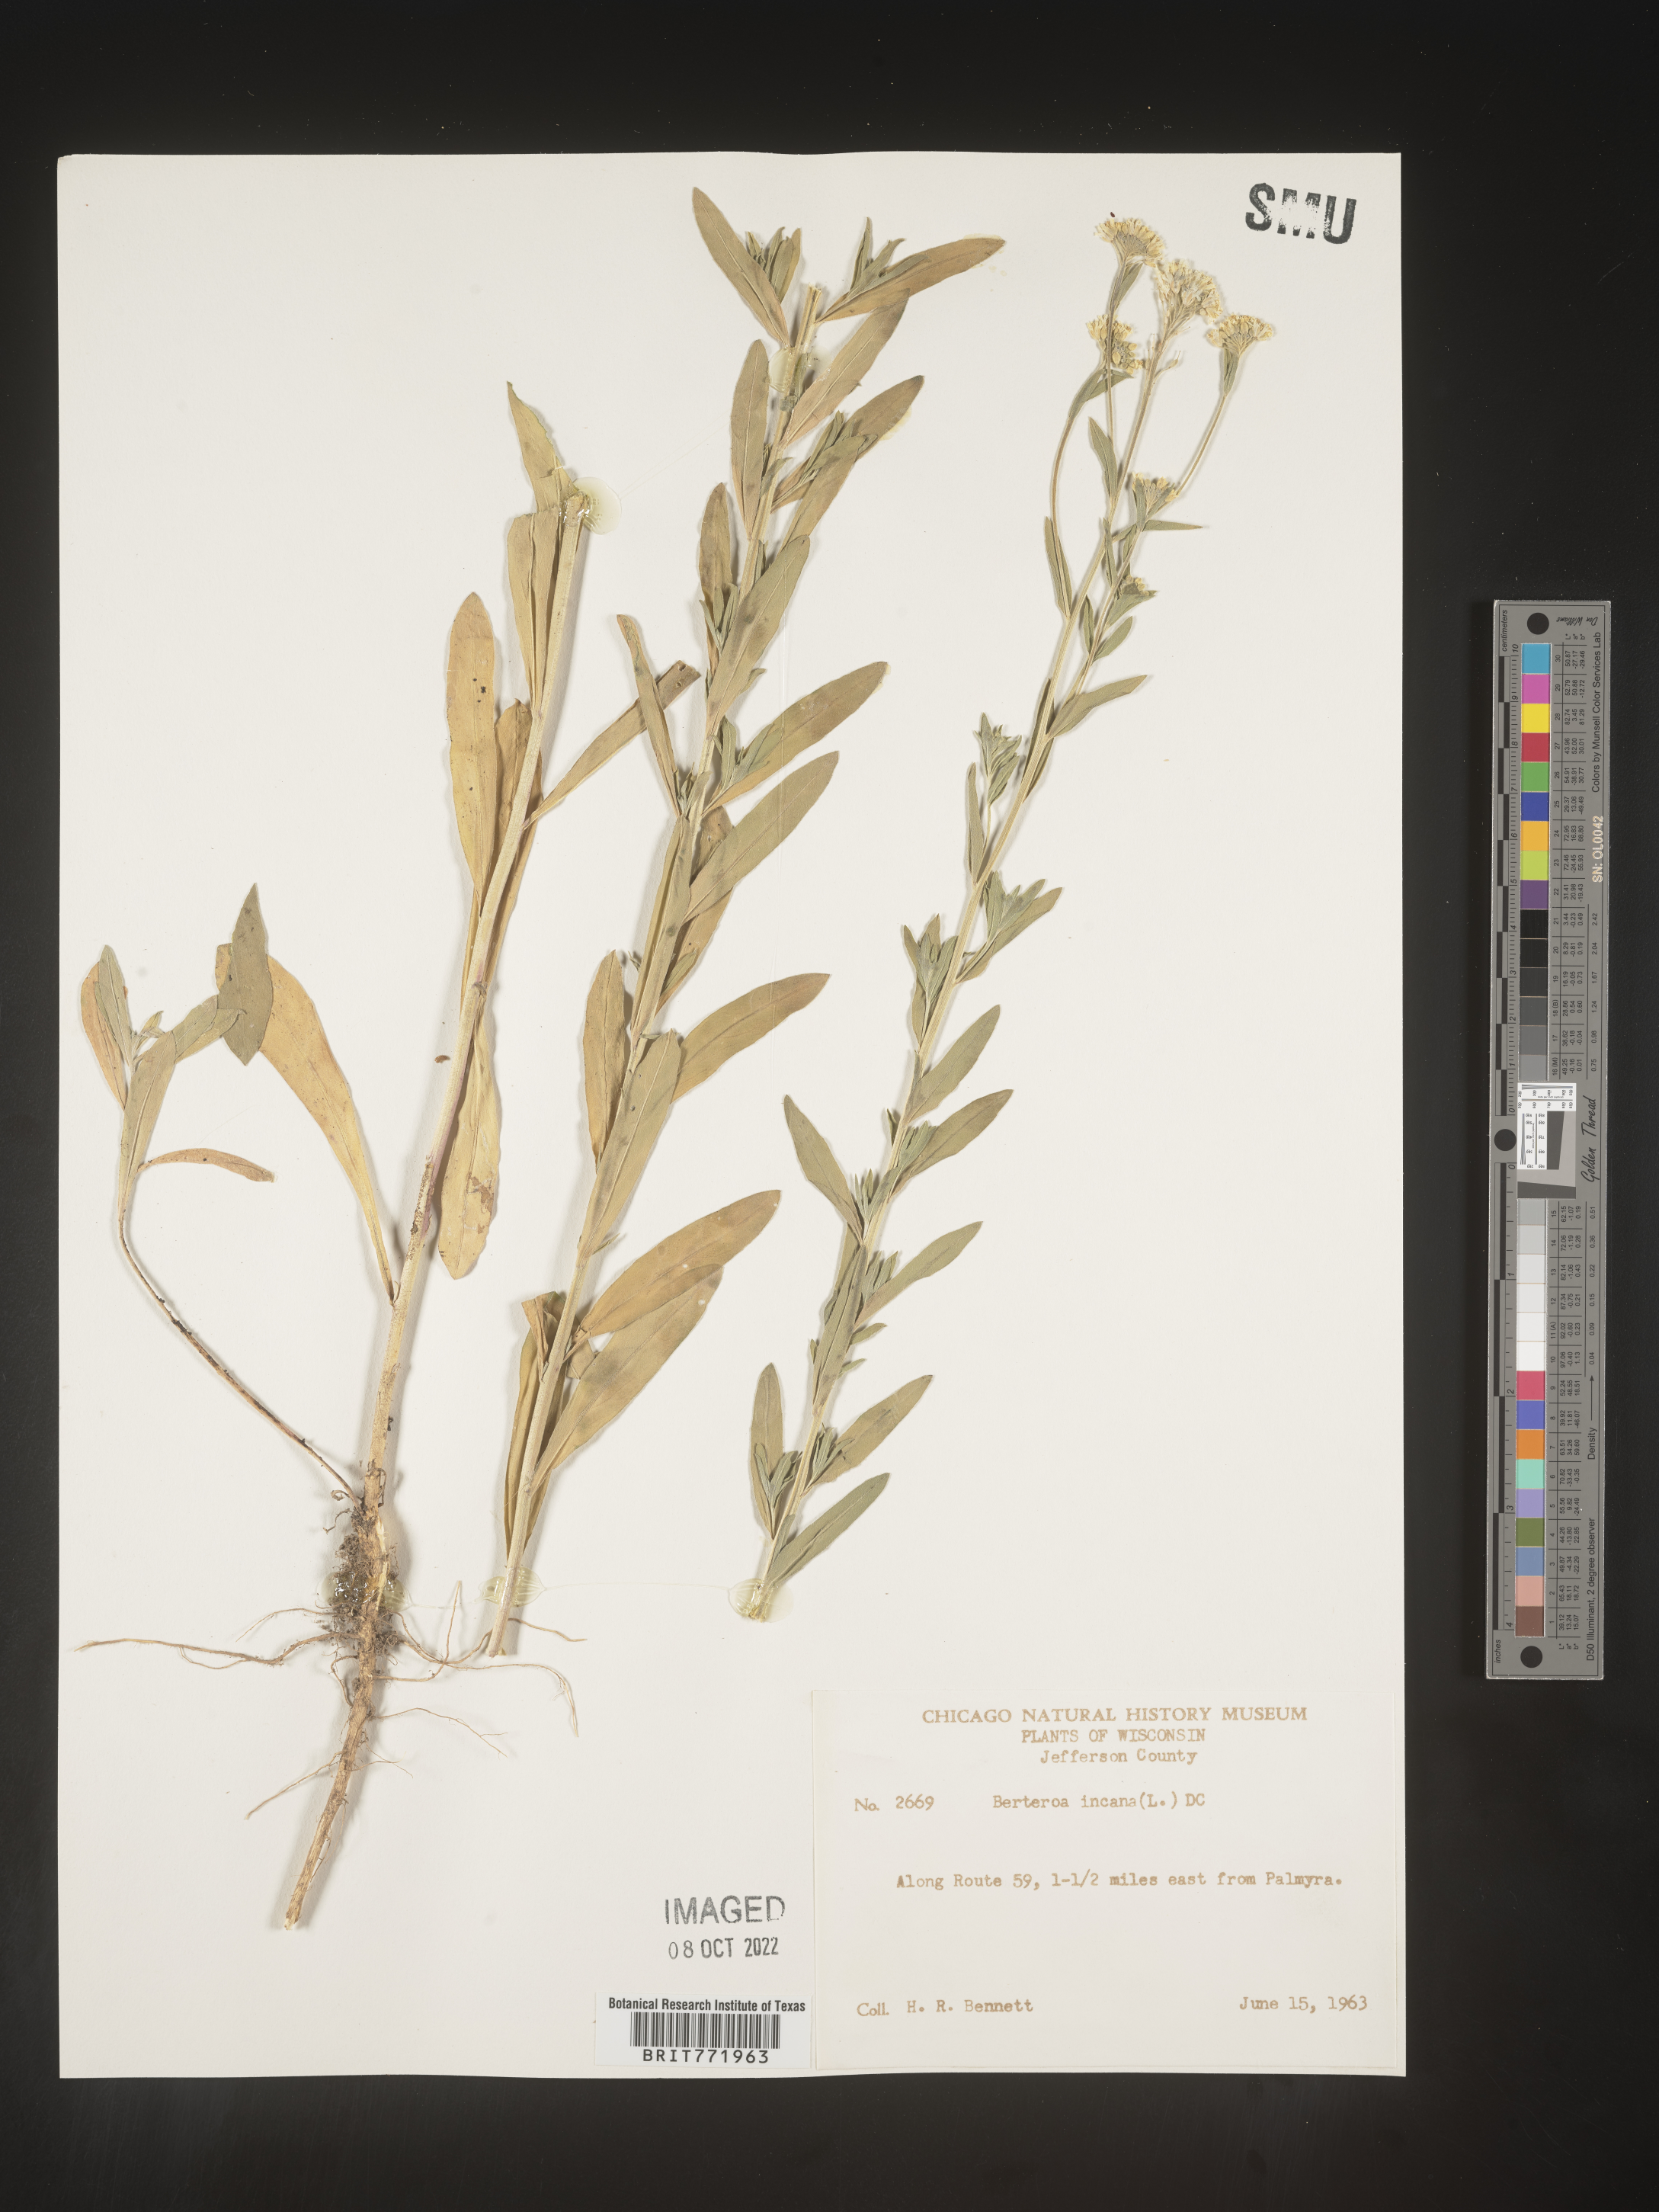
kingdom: Plantae
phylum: Tracheophyta
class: Magnoliopsida
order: Brassicales
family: Brassicaceae
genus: Berteroa
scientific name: Berteroa incana
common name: Hoary alison
